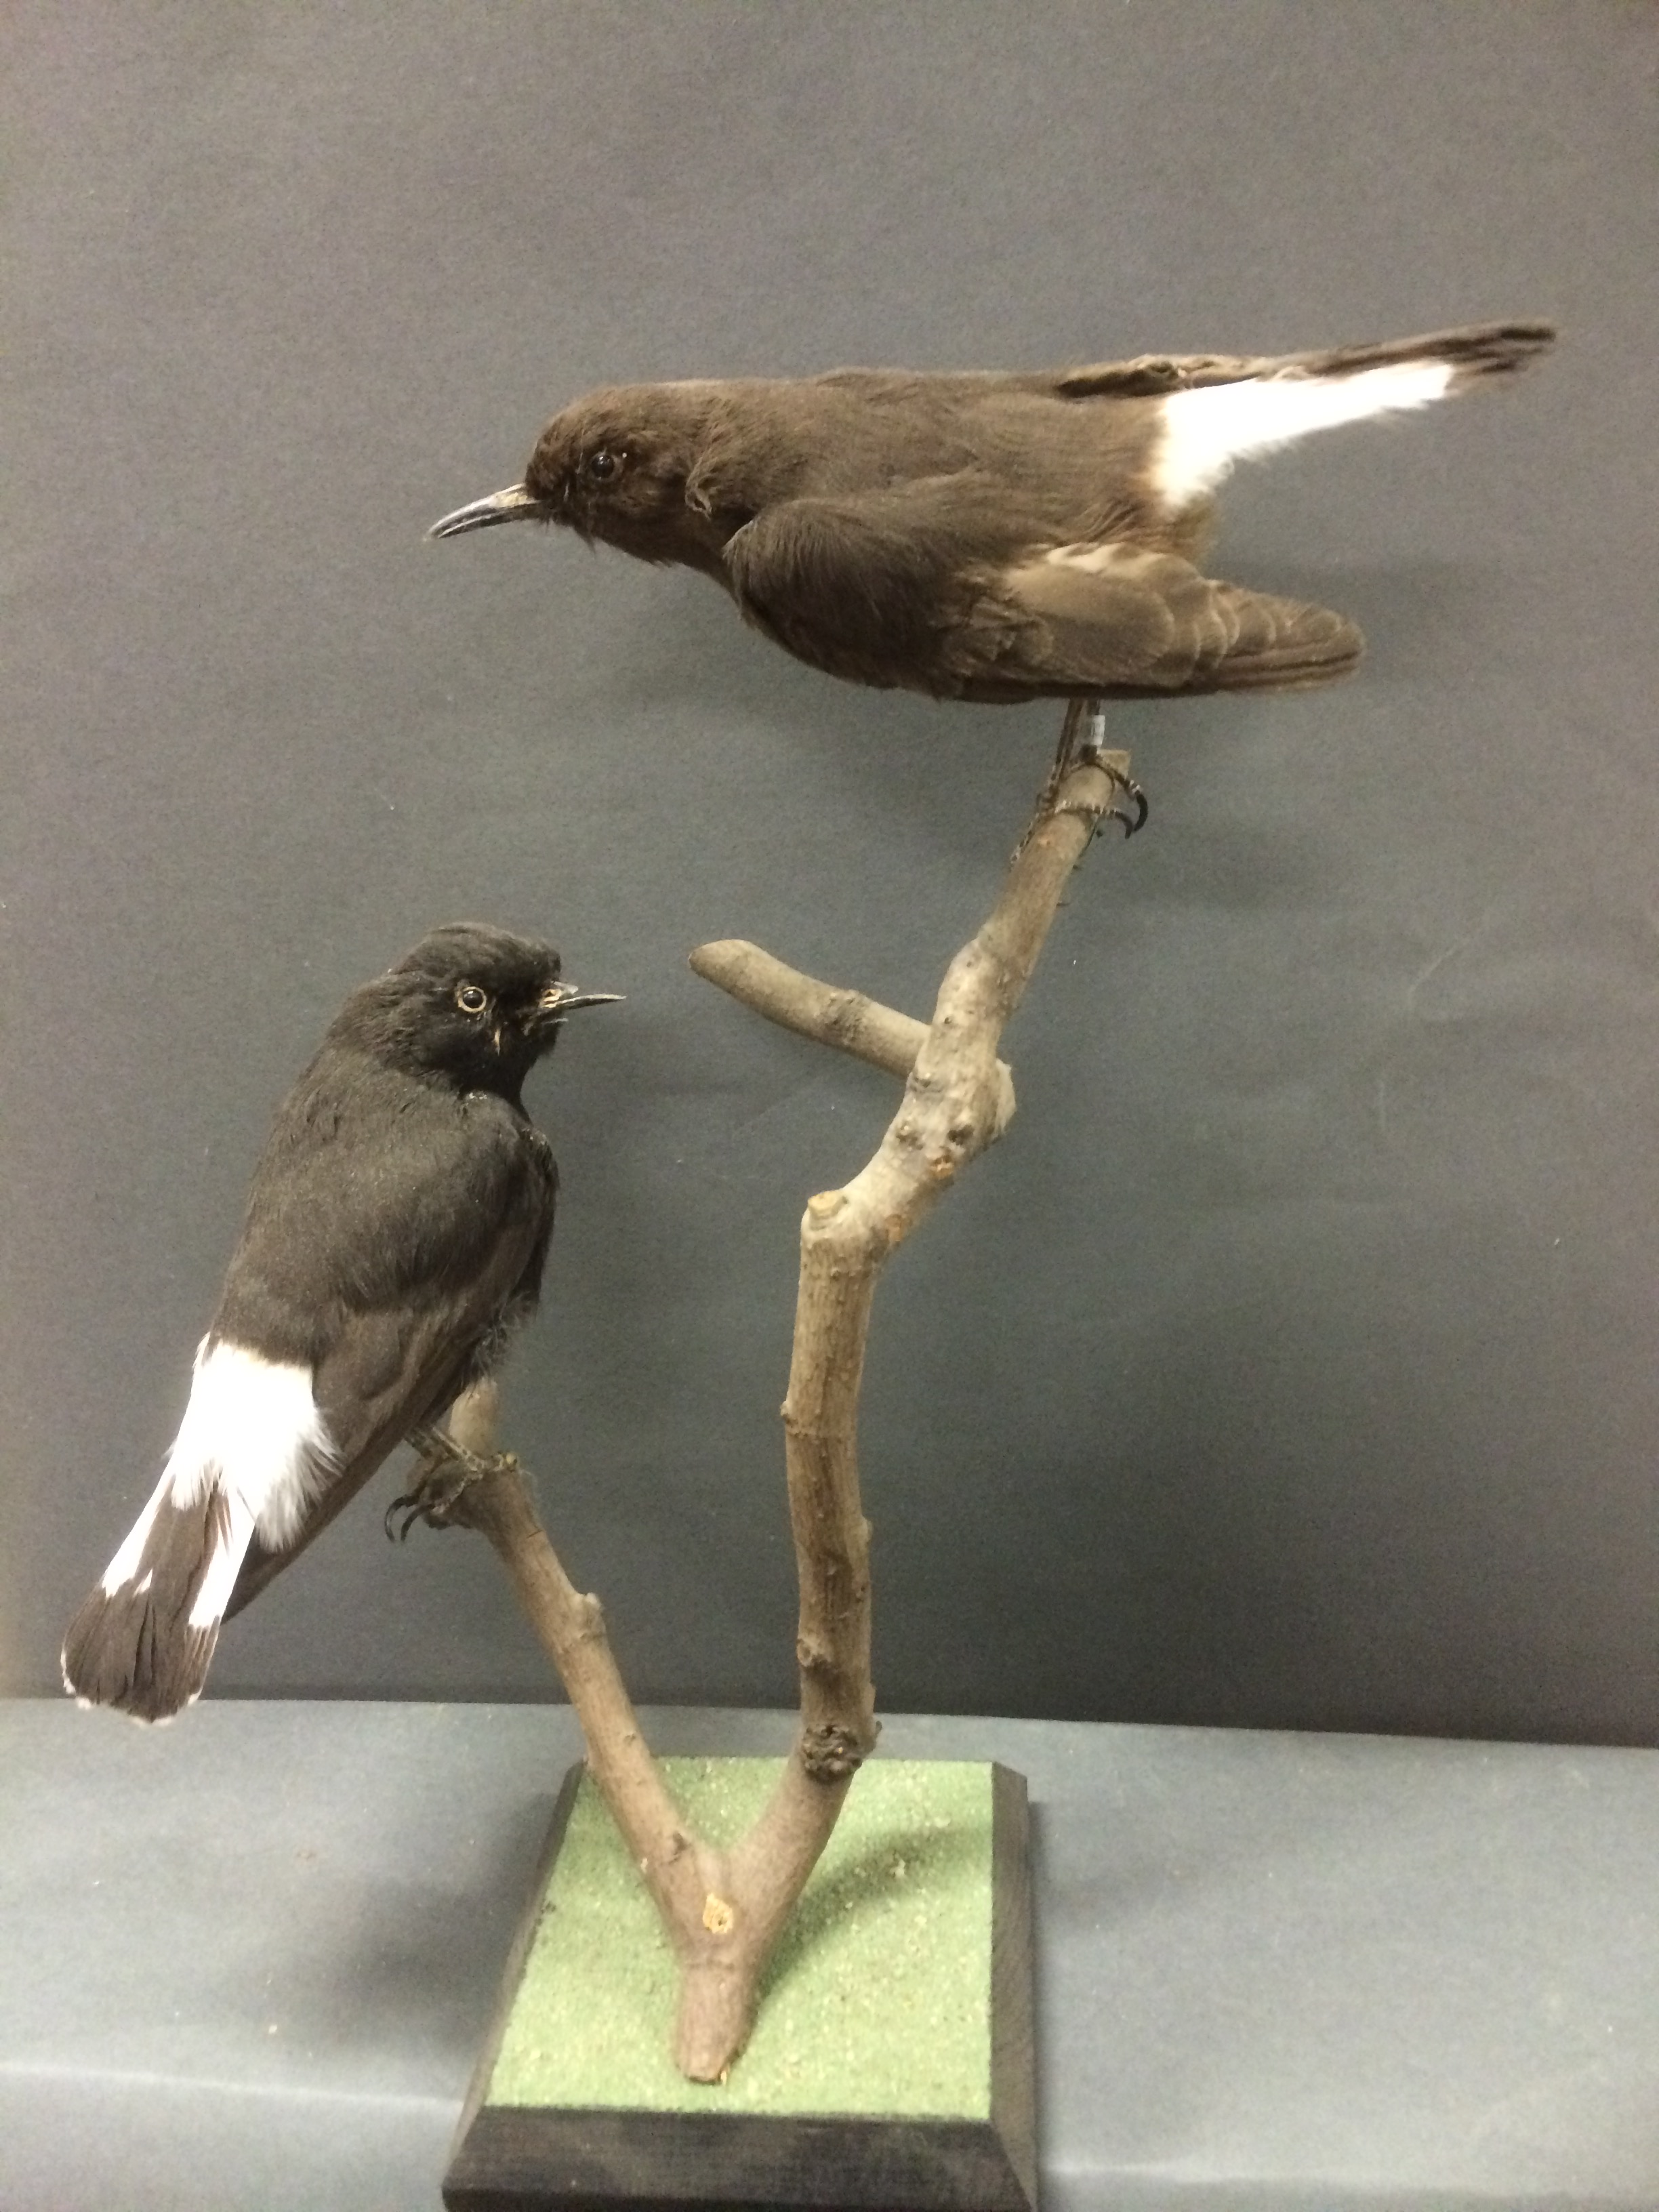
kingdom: Animalia
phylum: Chordata
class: Aves
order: Passeriformes
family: Muscicapidae
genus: Oenanthe
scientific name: Oenanthe leucura
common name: Black wheatear
